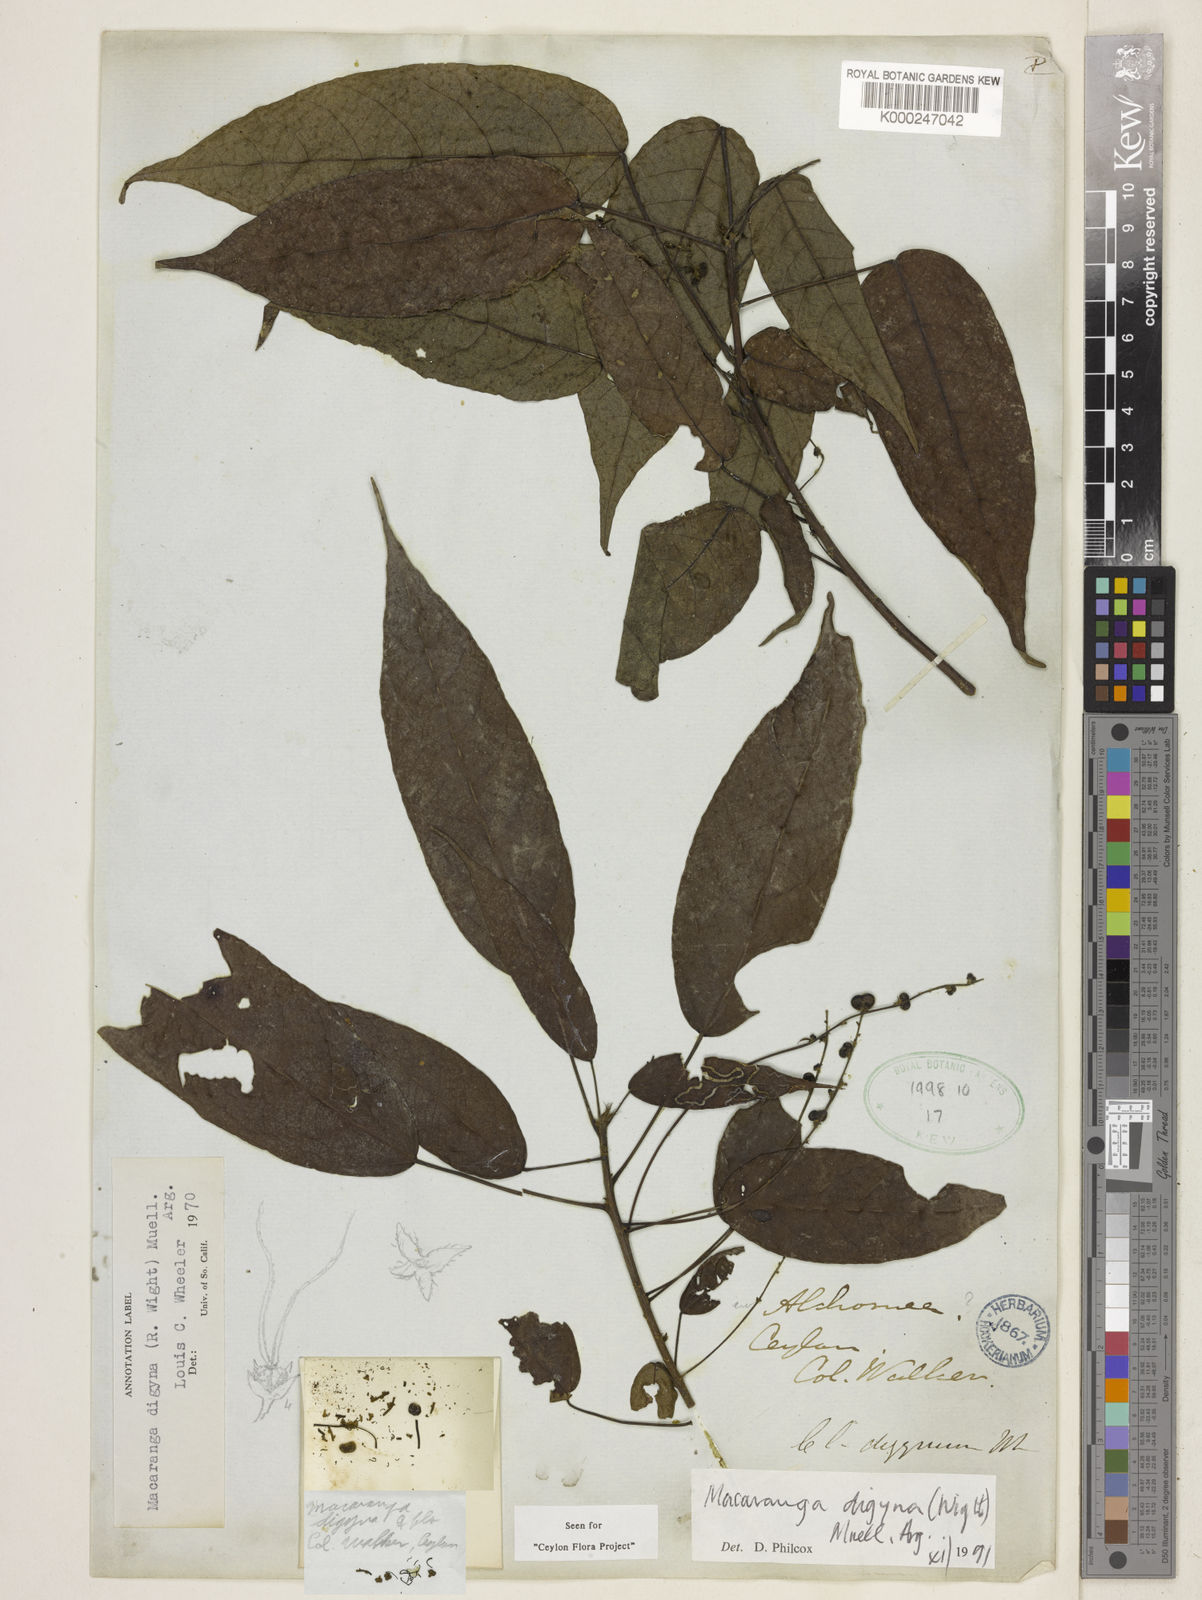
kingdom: Plantae
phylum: Tracheophyta
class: Magnoliopsida
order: Malpighiales
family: Euphorbiaceae
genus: Macaranga
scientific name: Macaranga
